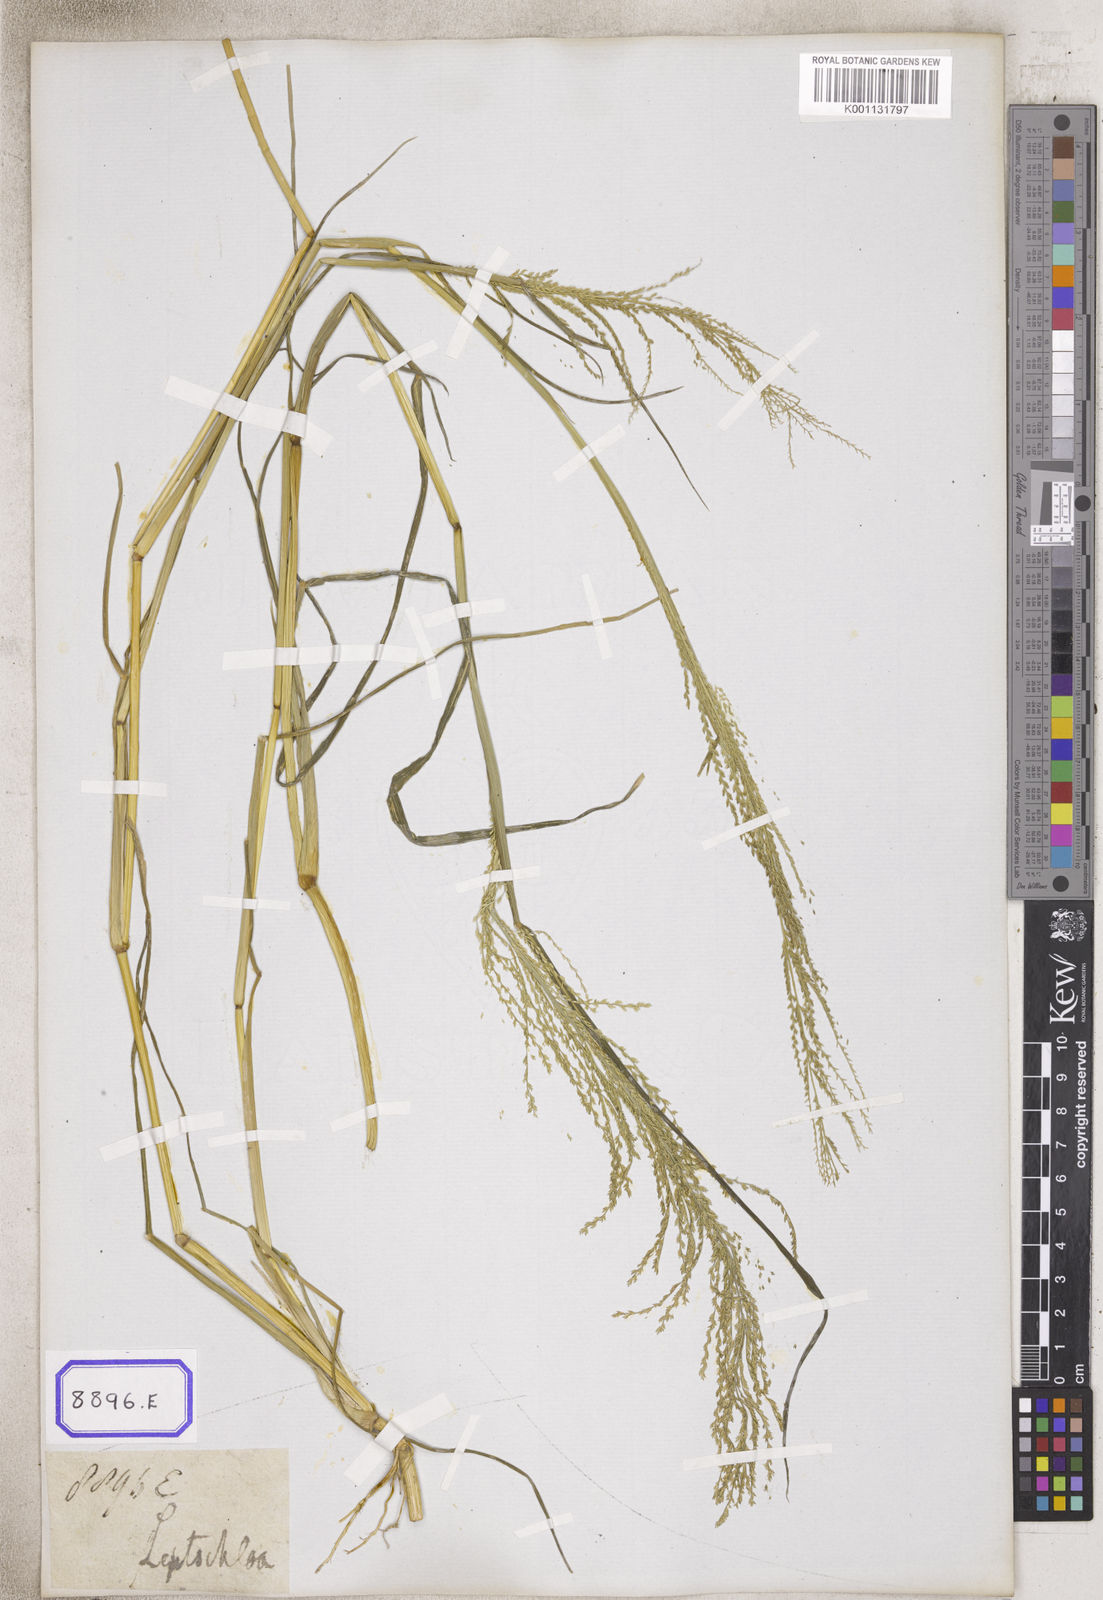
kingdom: Plantae
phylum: Tracheophyta
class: Liliopsida
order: Poales
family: Poaceae
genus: Leptochloa
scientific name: Leptochloa chinensis
